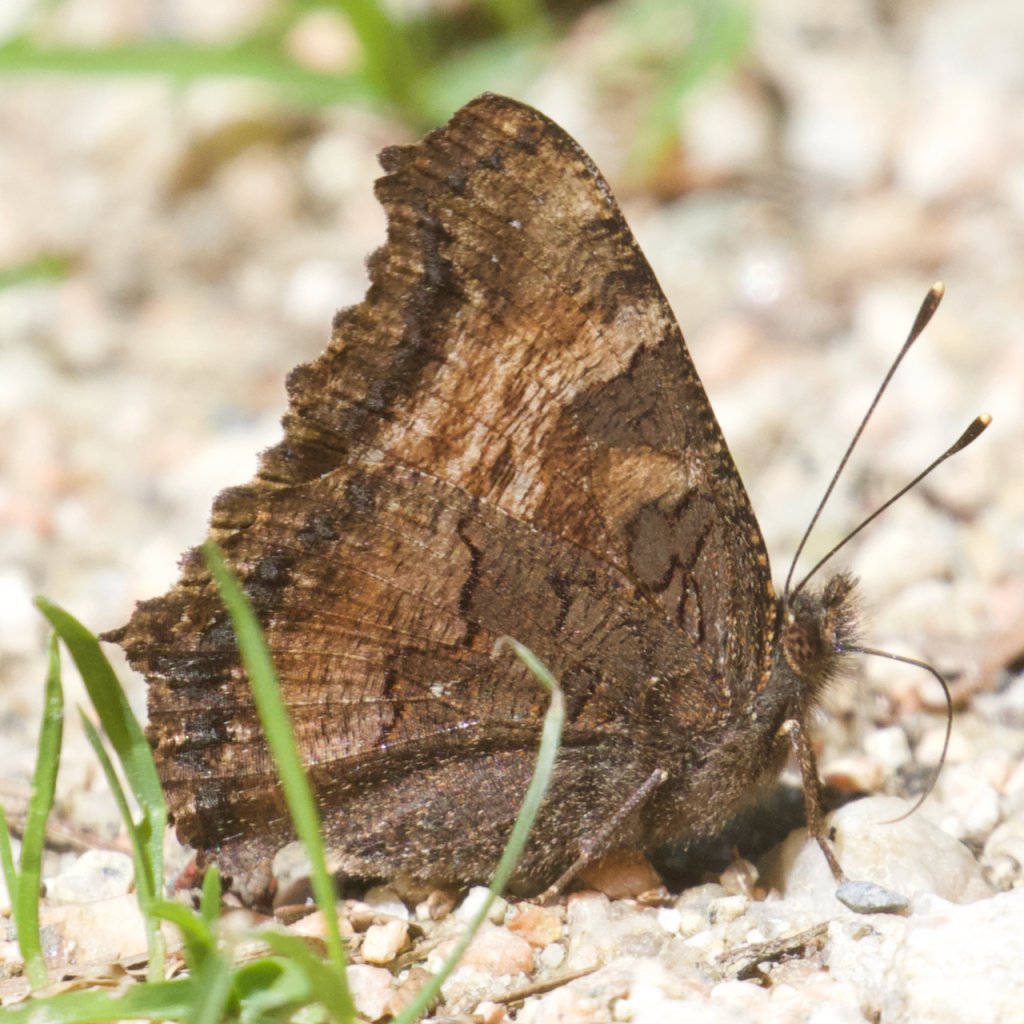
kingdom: Animalia
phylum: Arthropoda
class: Insecta
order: Lepidoptera
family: Nymphalidae
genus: Nymphalis
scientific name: Nymphalis californica
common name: California Tortoiseshell
